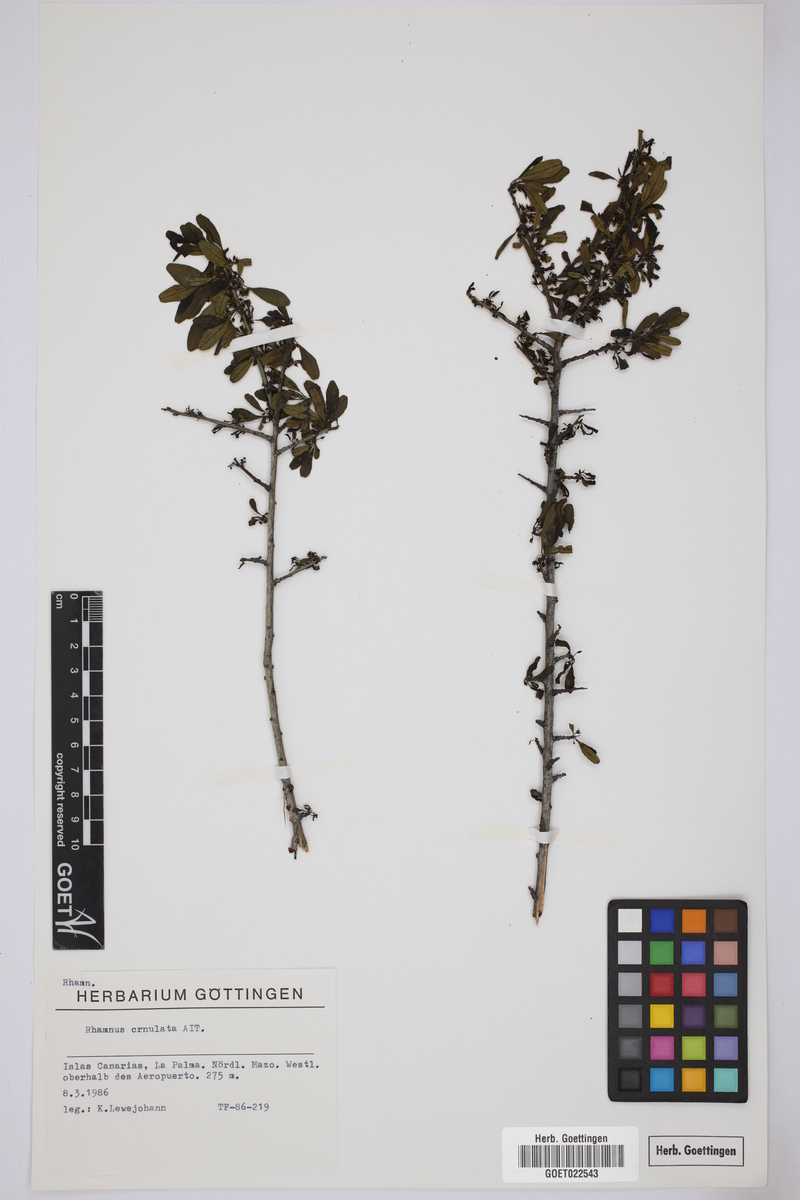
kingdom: Plantae
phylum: Tracheophyta
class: Magnoliopsida
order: Rosales
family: Rhamnaceae
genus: Rhamnus
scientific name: Rhamnus crenulata
